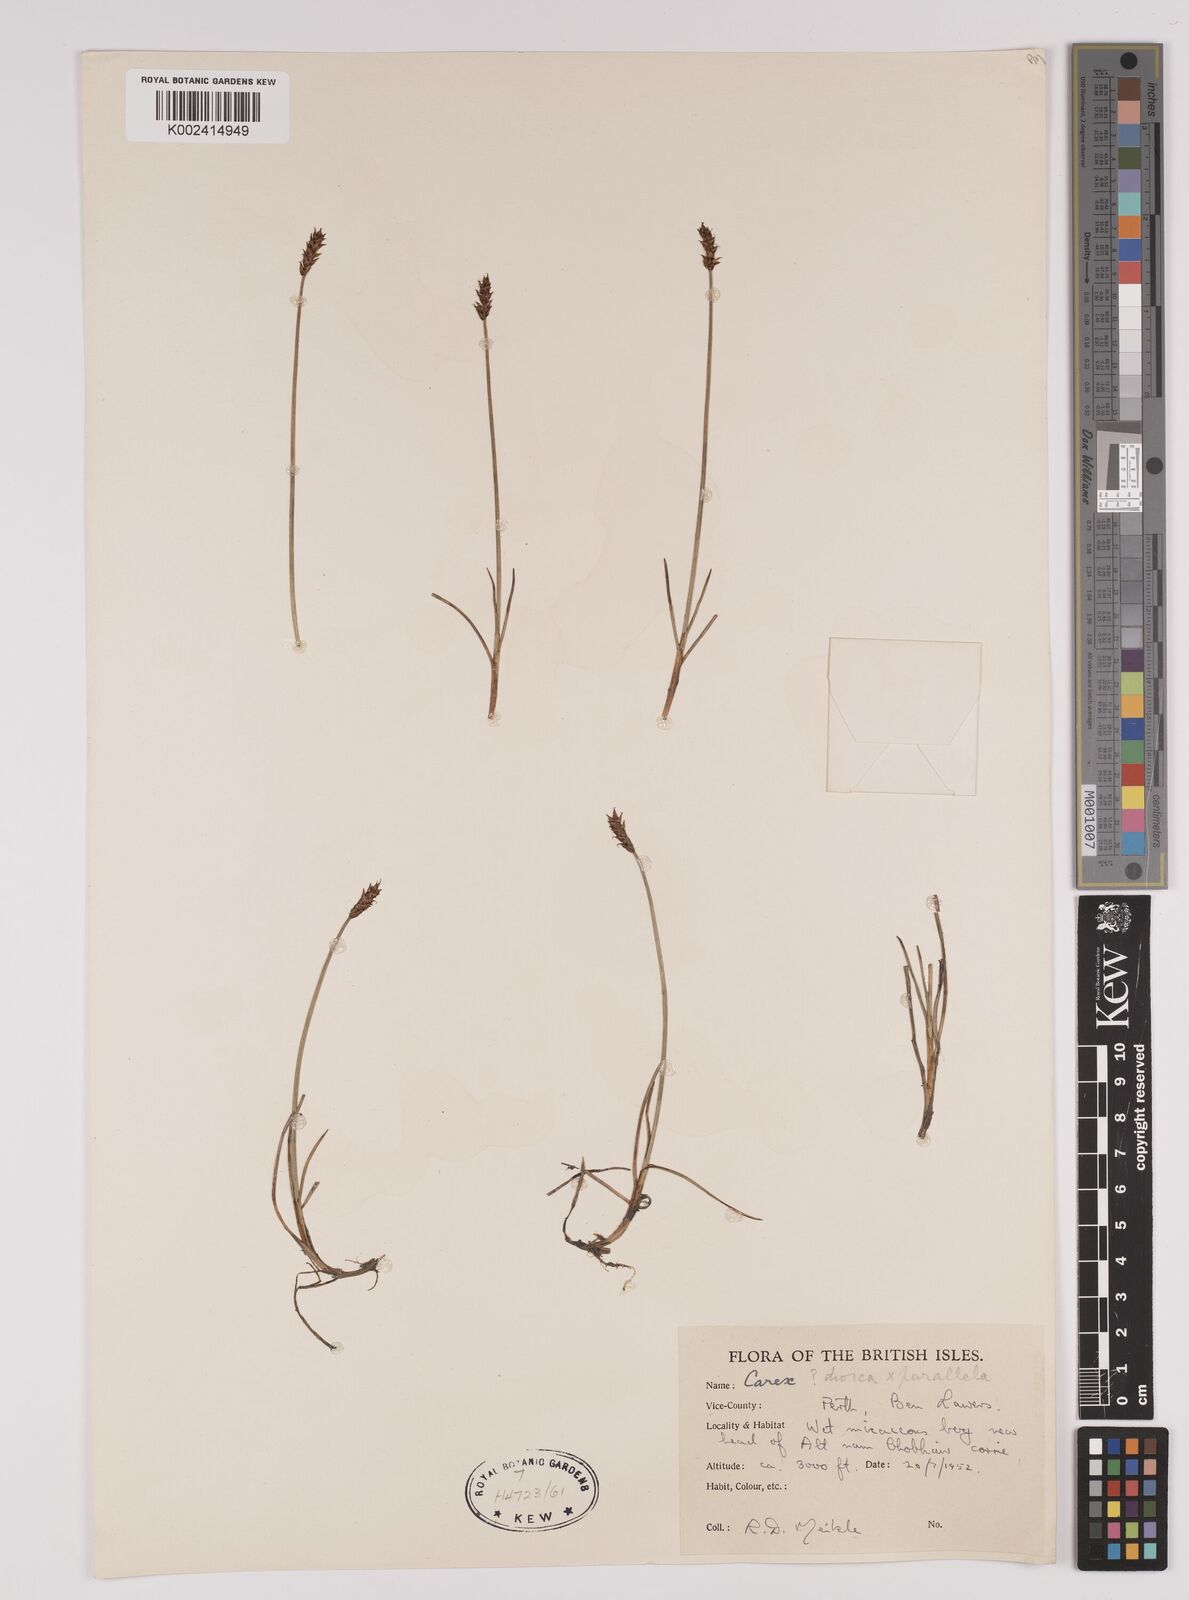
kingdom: Plantae
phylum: Tracheophyta
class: Liliopsida
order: Poales
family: Cyperaceae
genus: Carex
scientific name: Carex dioica
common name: Dioecious sedge
